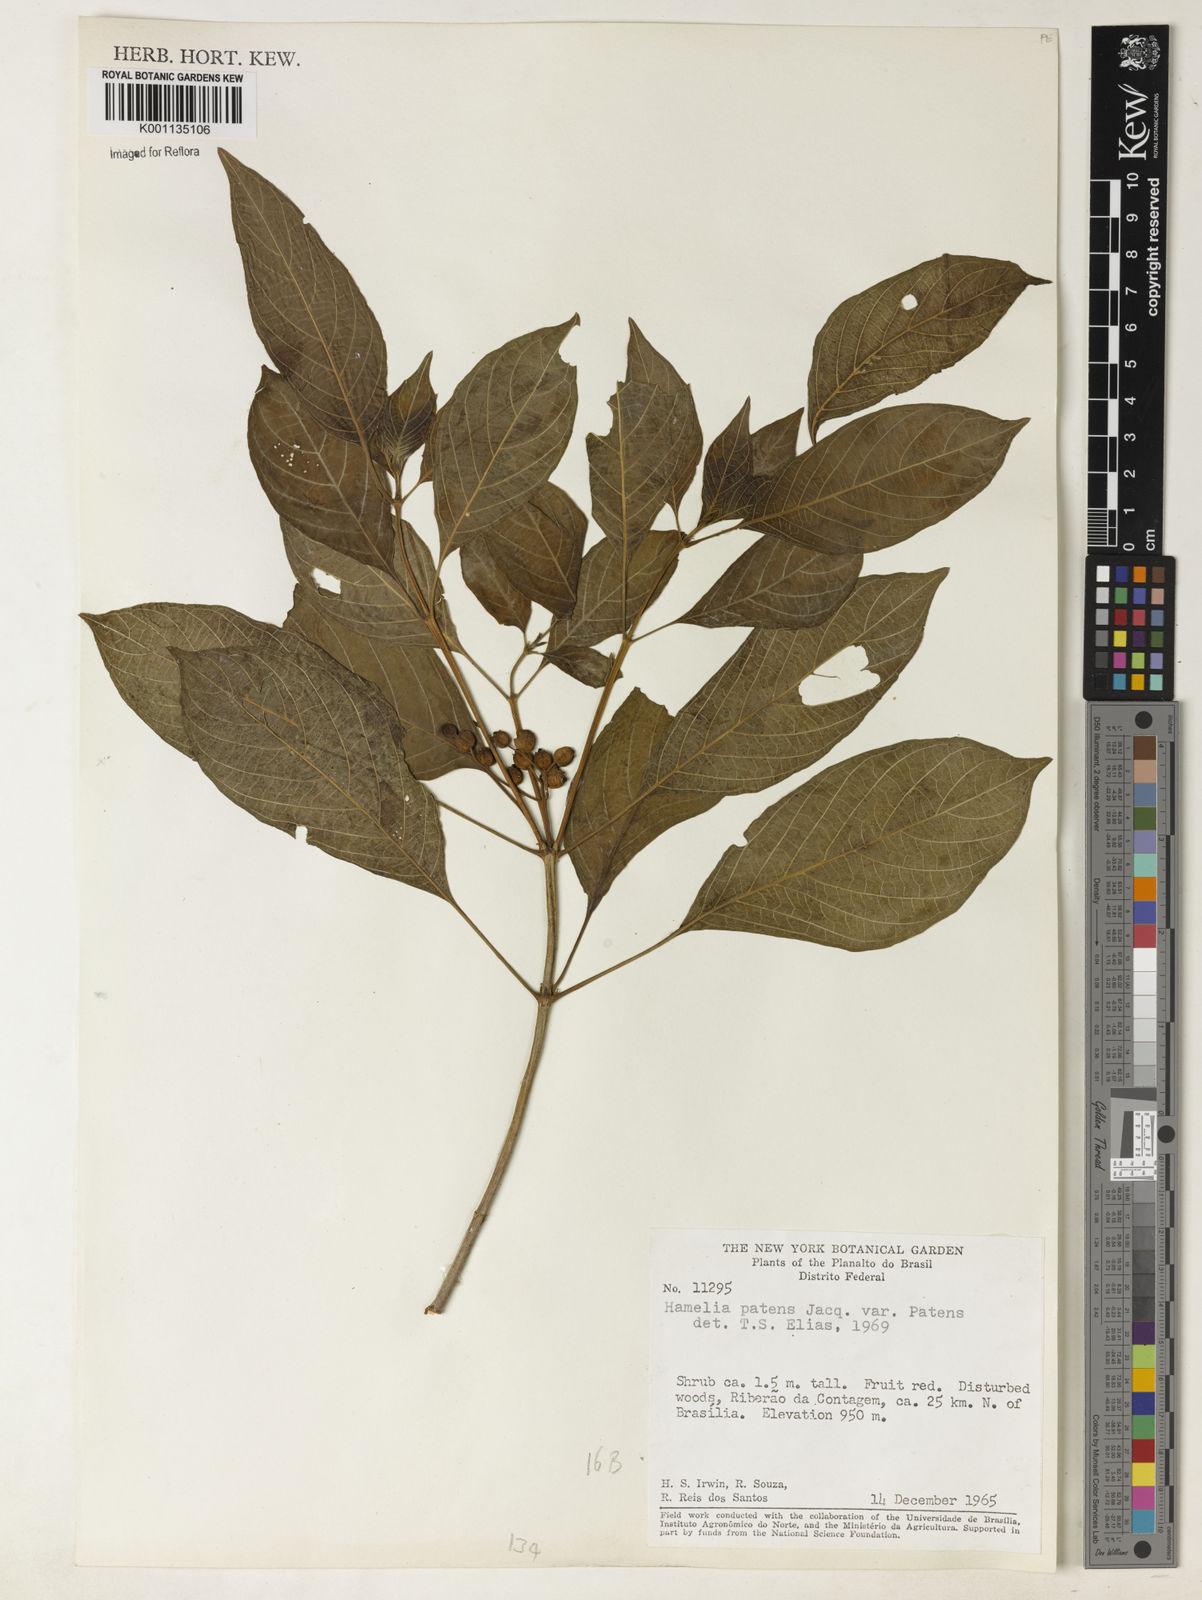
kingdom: Plantae
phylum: Tracheophyta
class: Magnoliopsida
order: Gentianales
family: Rubiaceae
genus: Hamelia
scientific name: Hamelia patens
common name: Redhead
